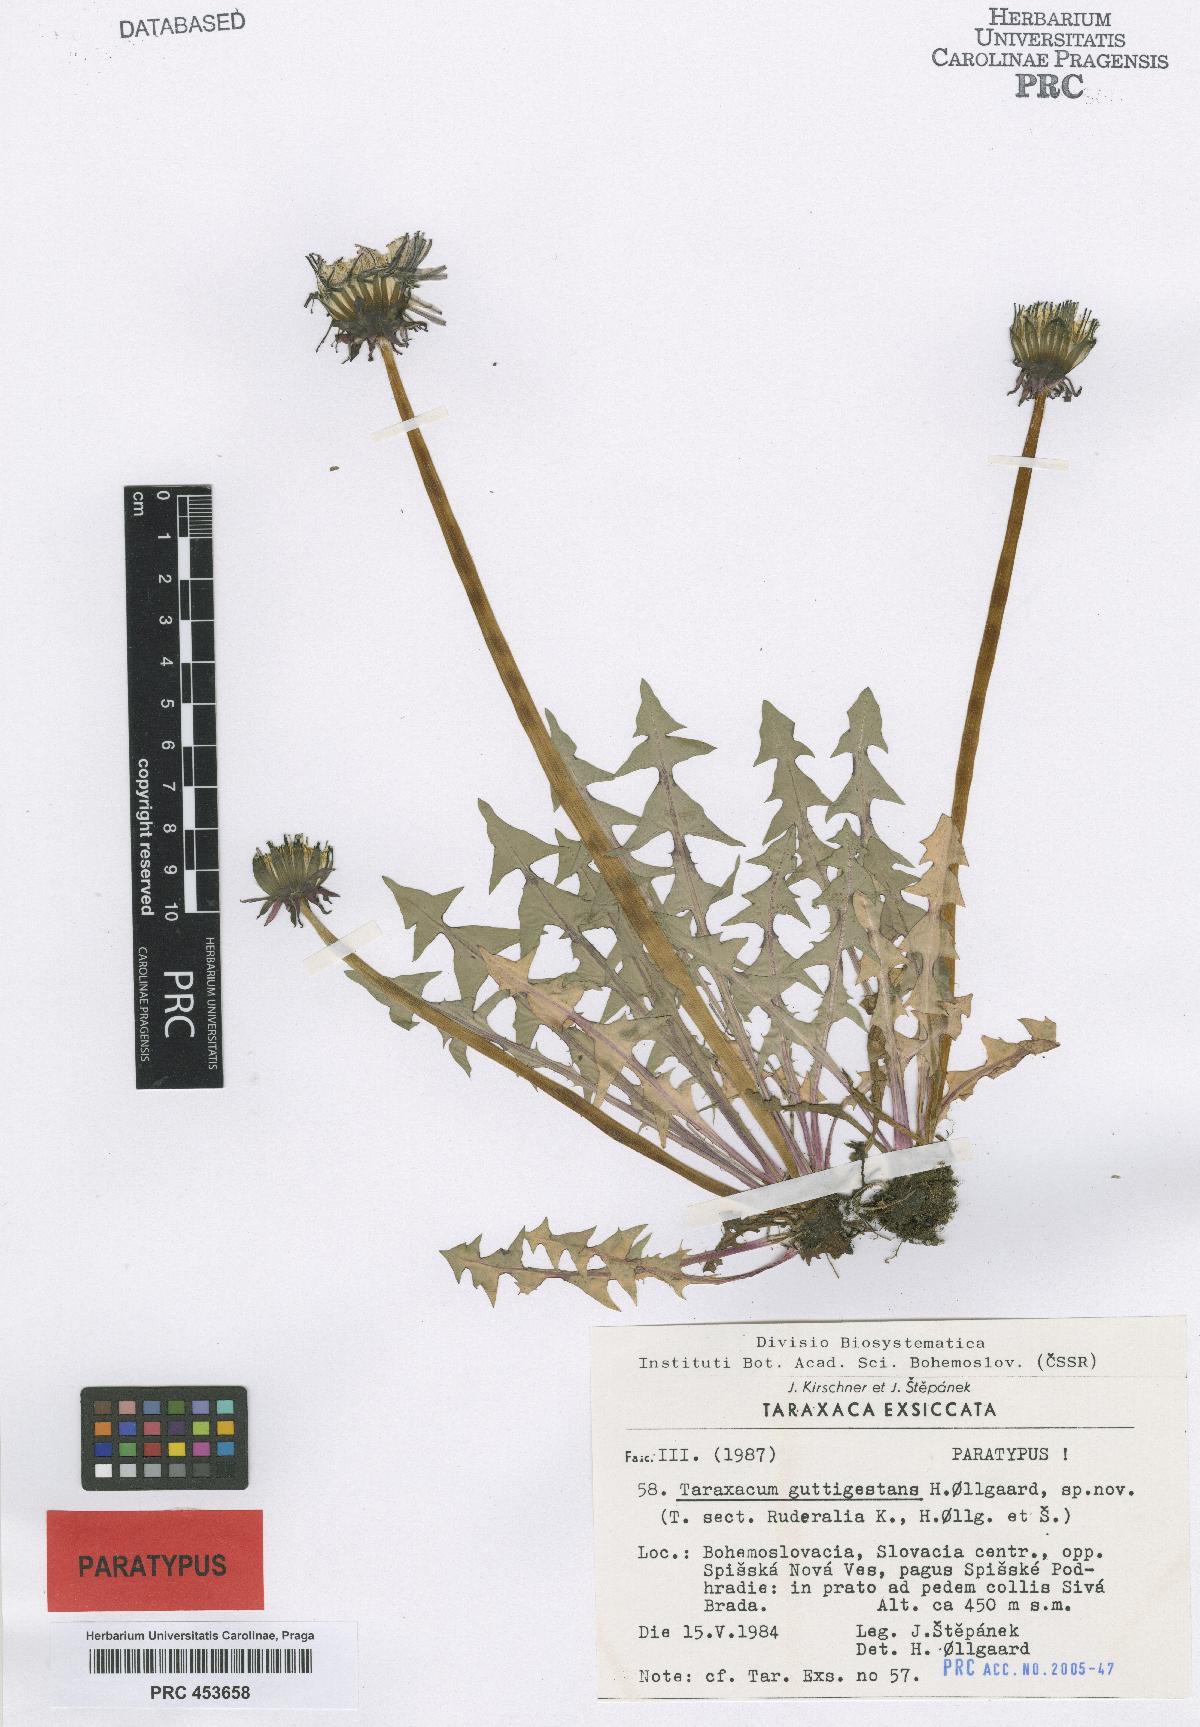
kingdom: Plantae
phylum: Tracheophyta
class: Magnoliopsida
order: Asterales
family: Asteraceae
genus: Taraxacum
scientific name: Taraxacum guttigestans
